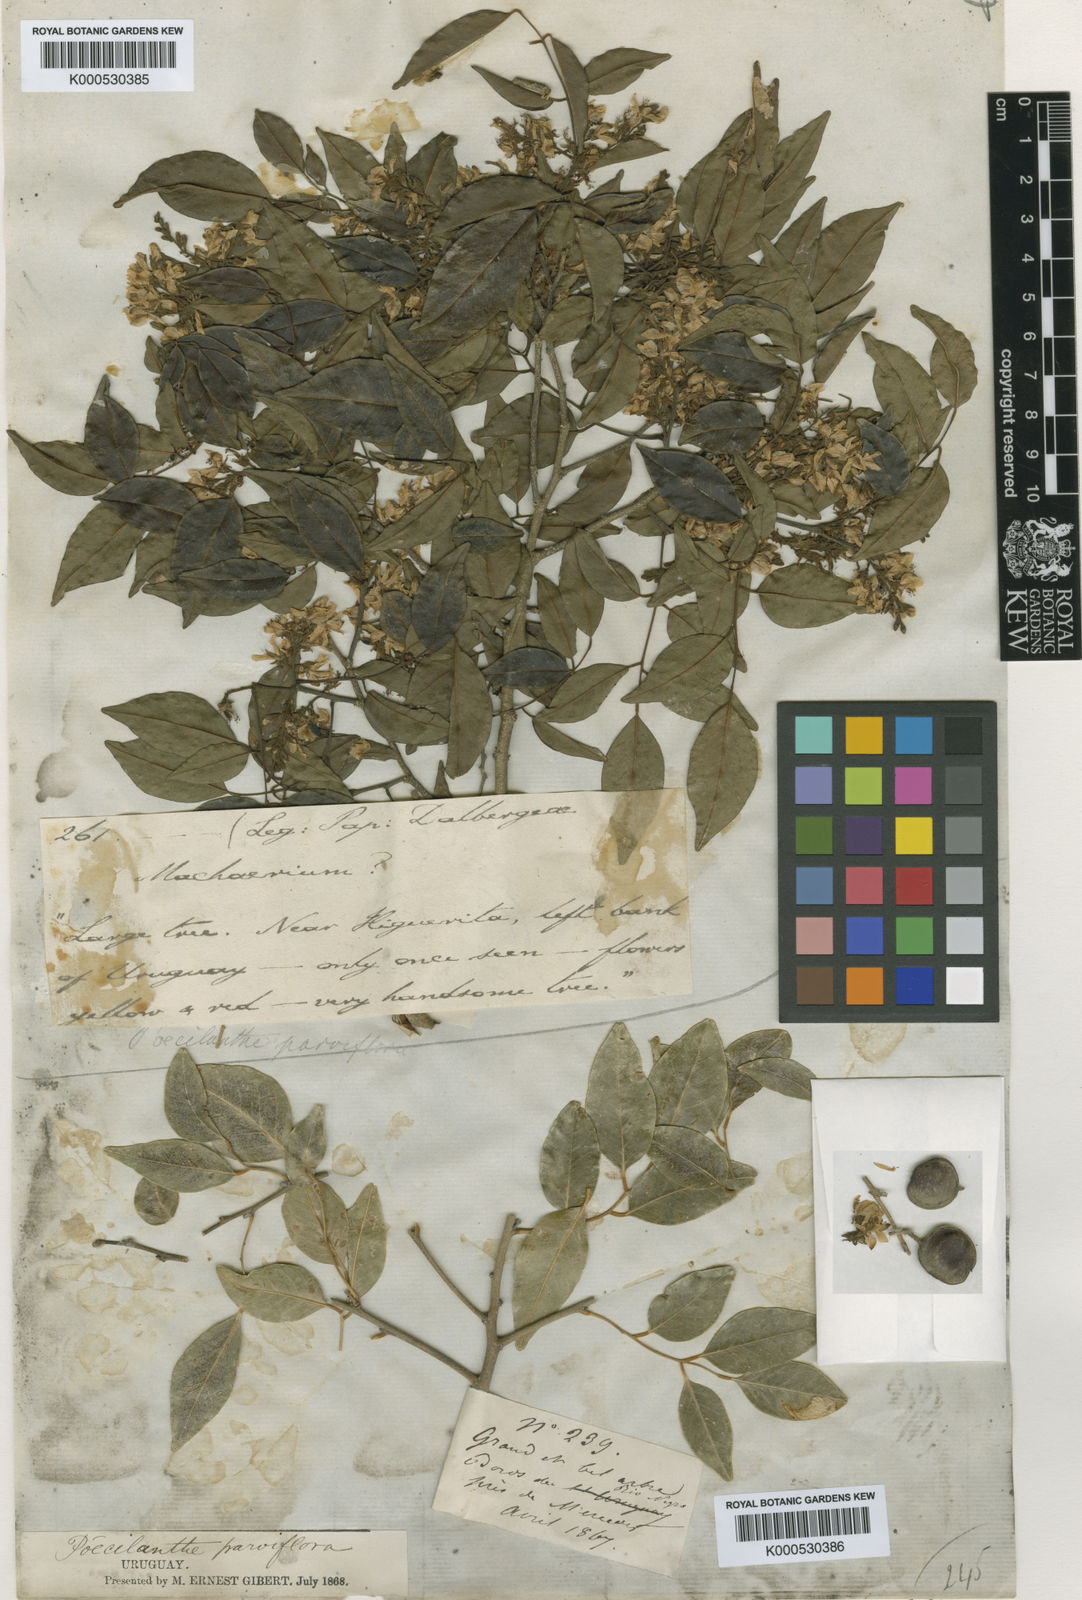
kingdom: Plantae
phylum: Tracheophyta
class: Magnoliopsida
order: Fabales
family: Fabaceae
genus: Poecilanthe
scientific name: Poecilanthe parviflora
